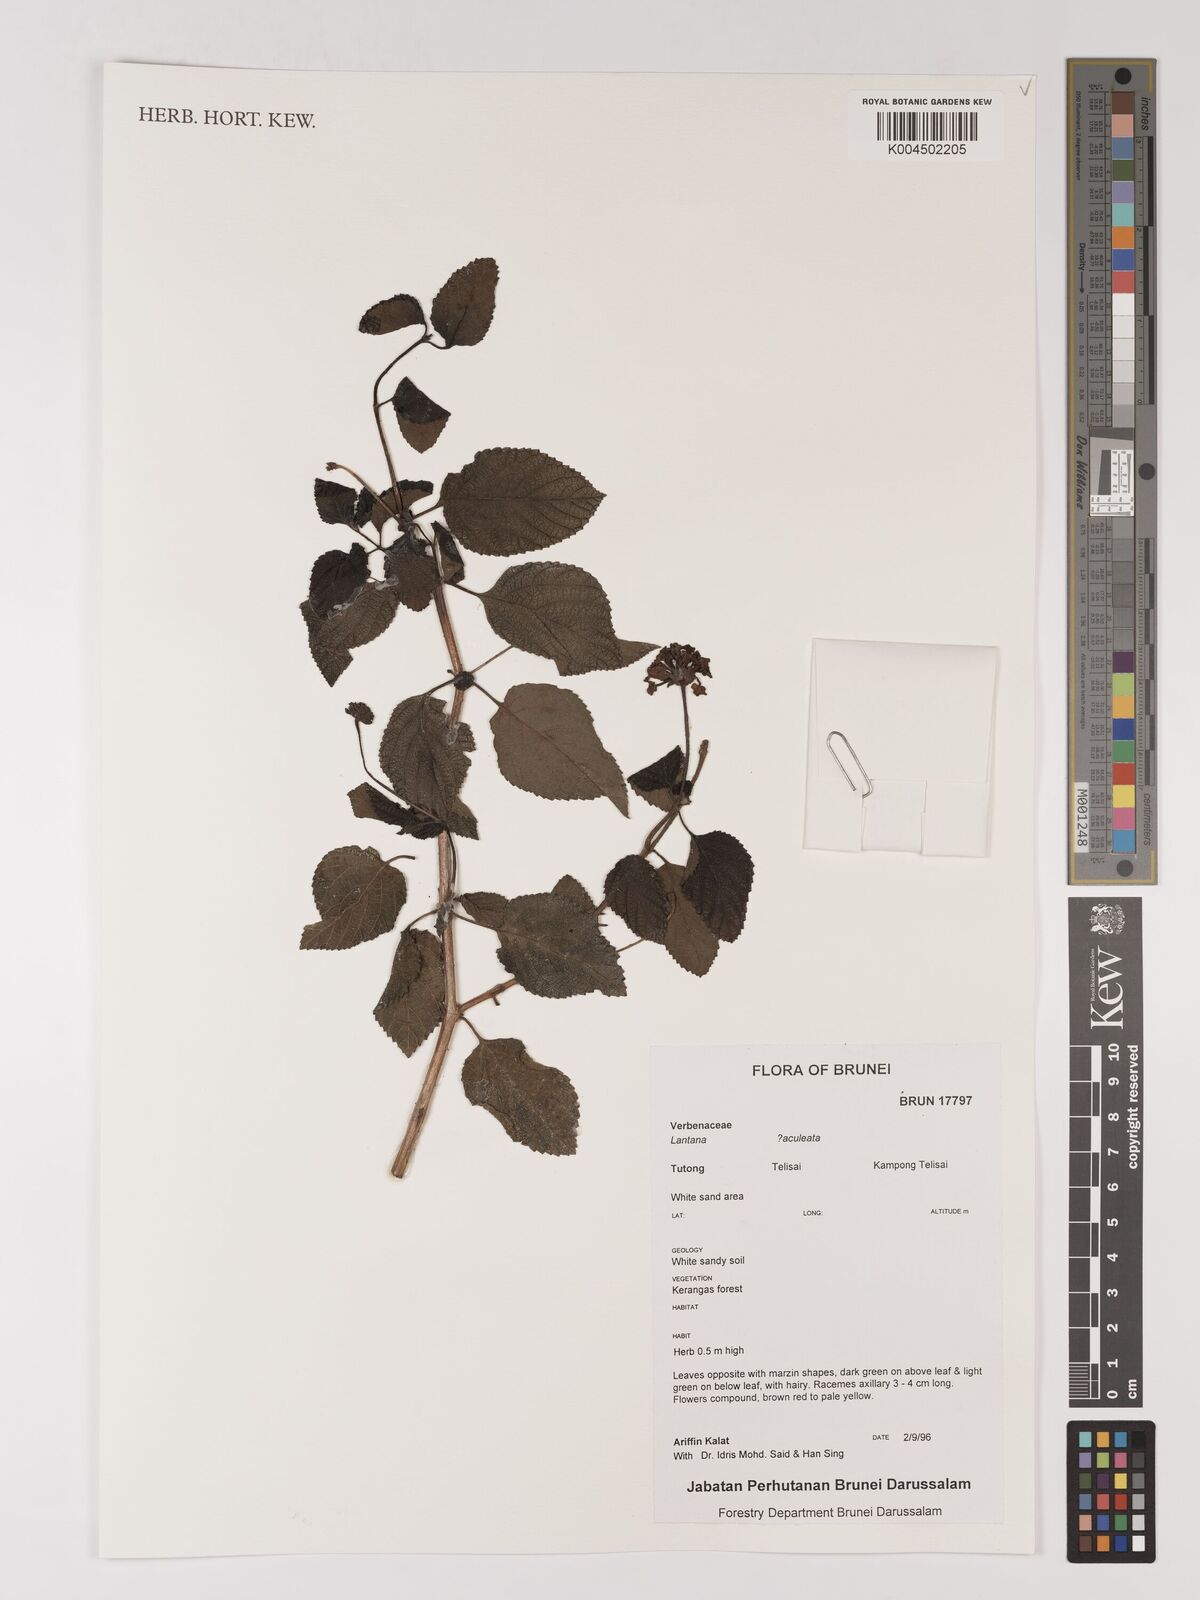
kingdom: Plantae
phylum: Tracheophyta
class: Magnoliopsida
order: Lamiales
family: Verbenaceae
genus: Lantana
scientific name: Lantana
